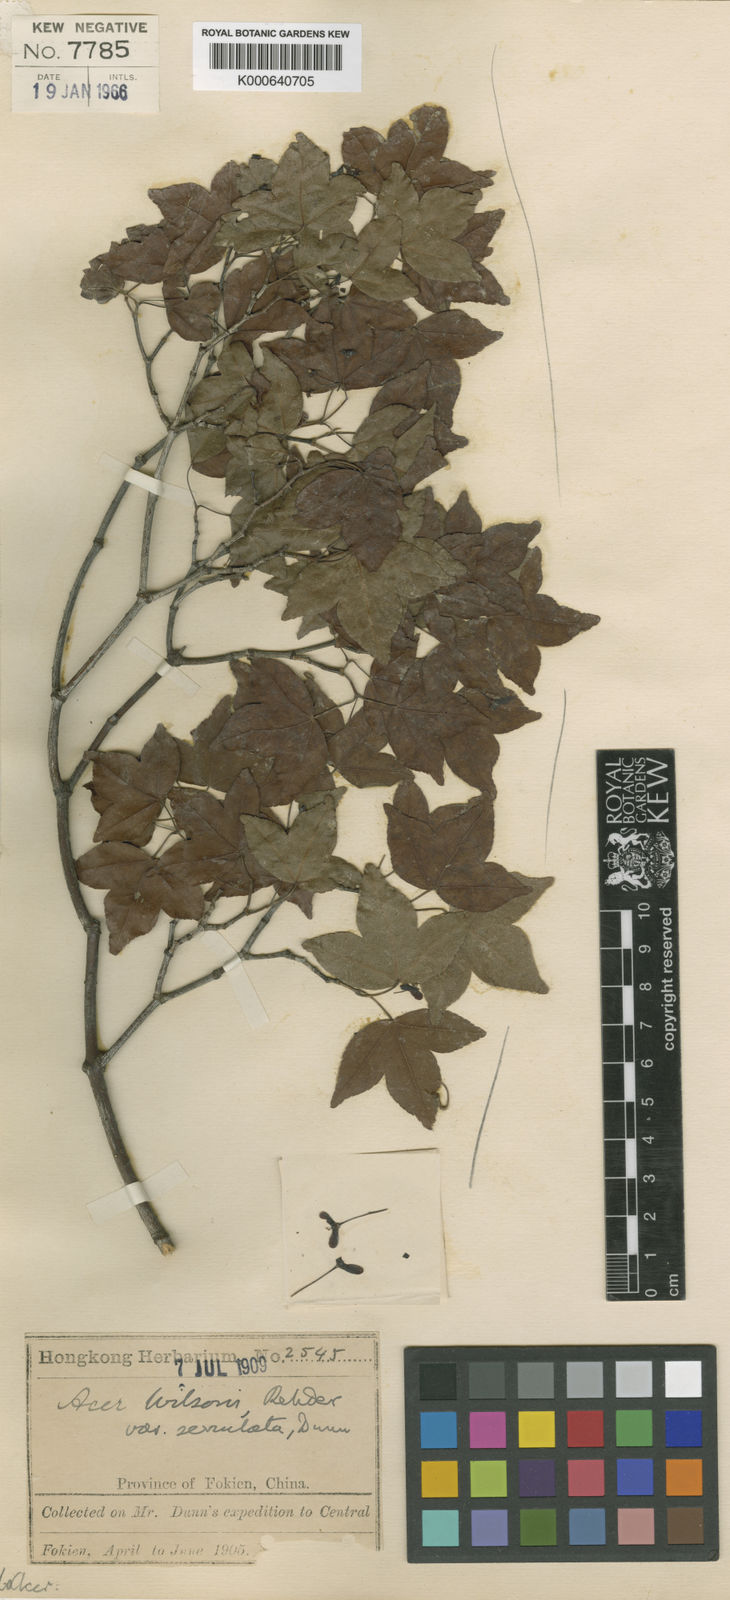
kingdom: Plantae
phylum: Tracheophyta
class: Magnoliopsida
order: Sapindales
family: Sapindaceae
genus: Acer
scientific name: Acer wilsonii
